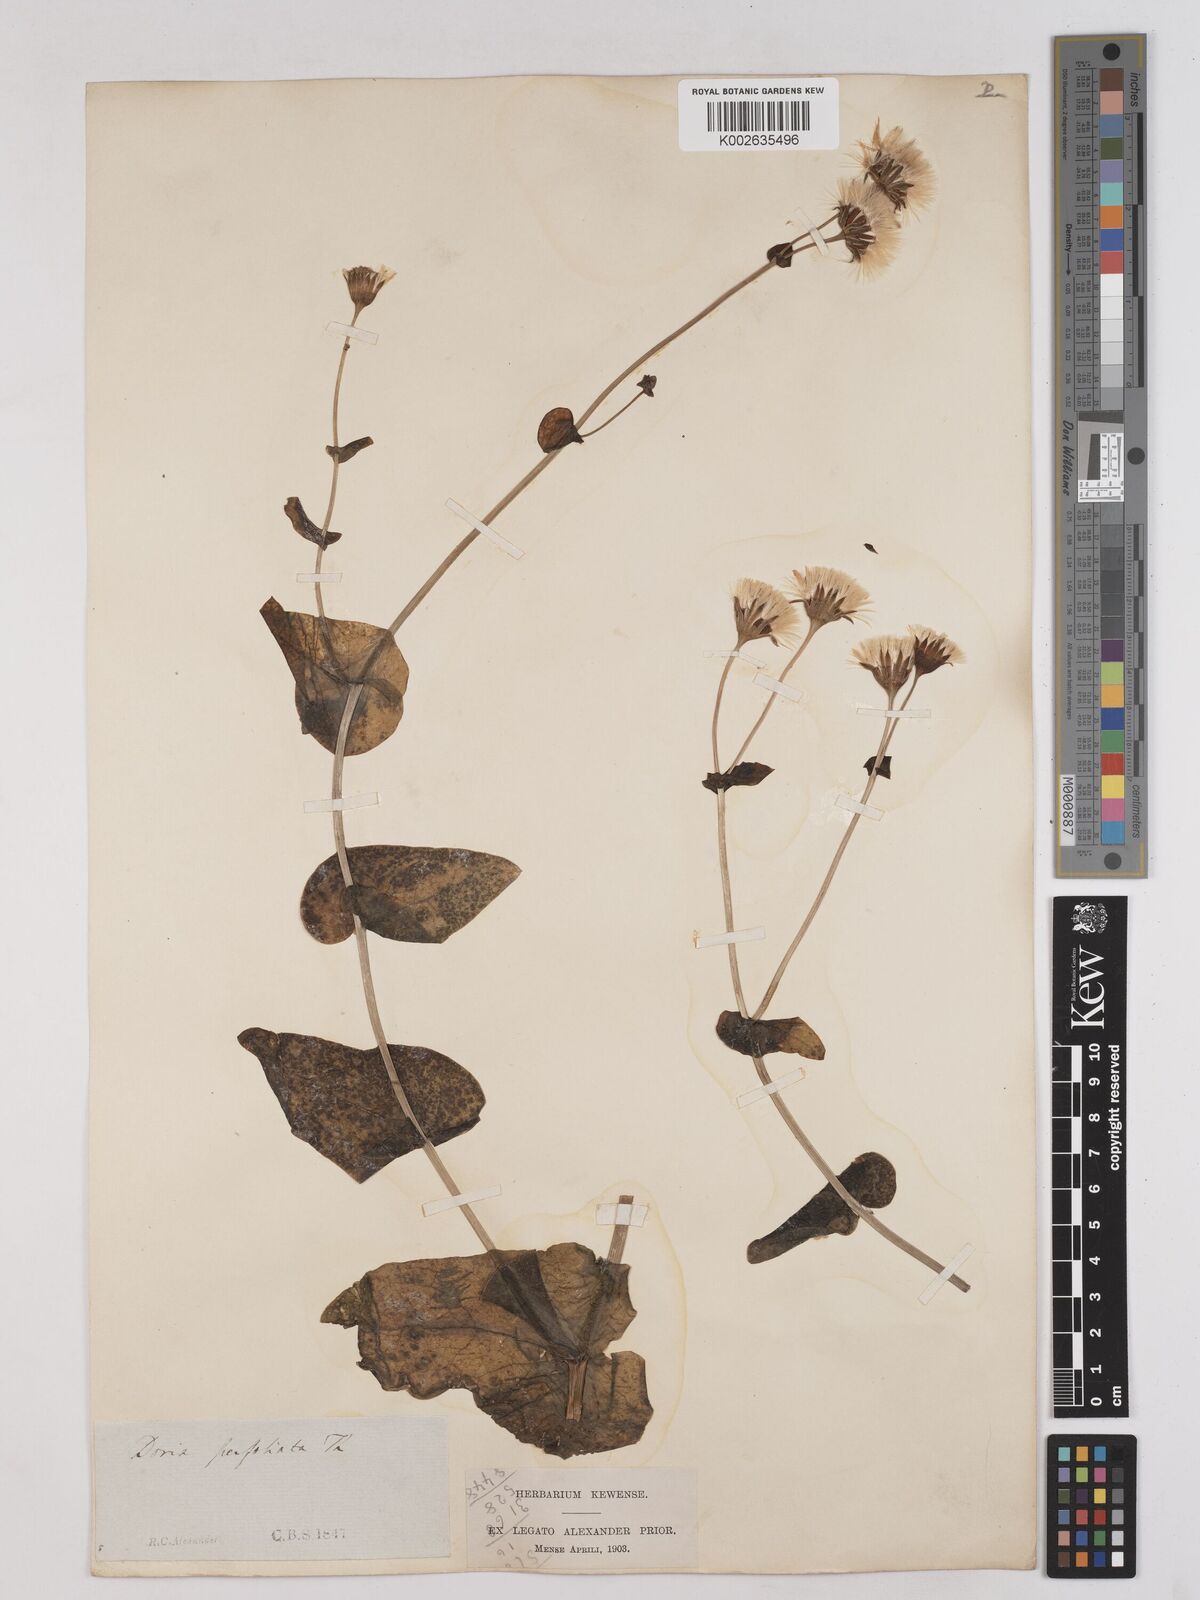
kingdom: Plantae
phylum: Tracheophyta
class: Magnoliopsida
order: Asterales
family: Asteraceae
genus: Othonna
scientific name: Othonna perfoliata
